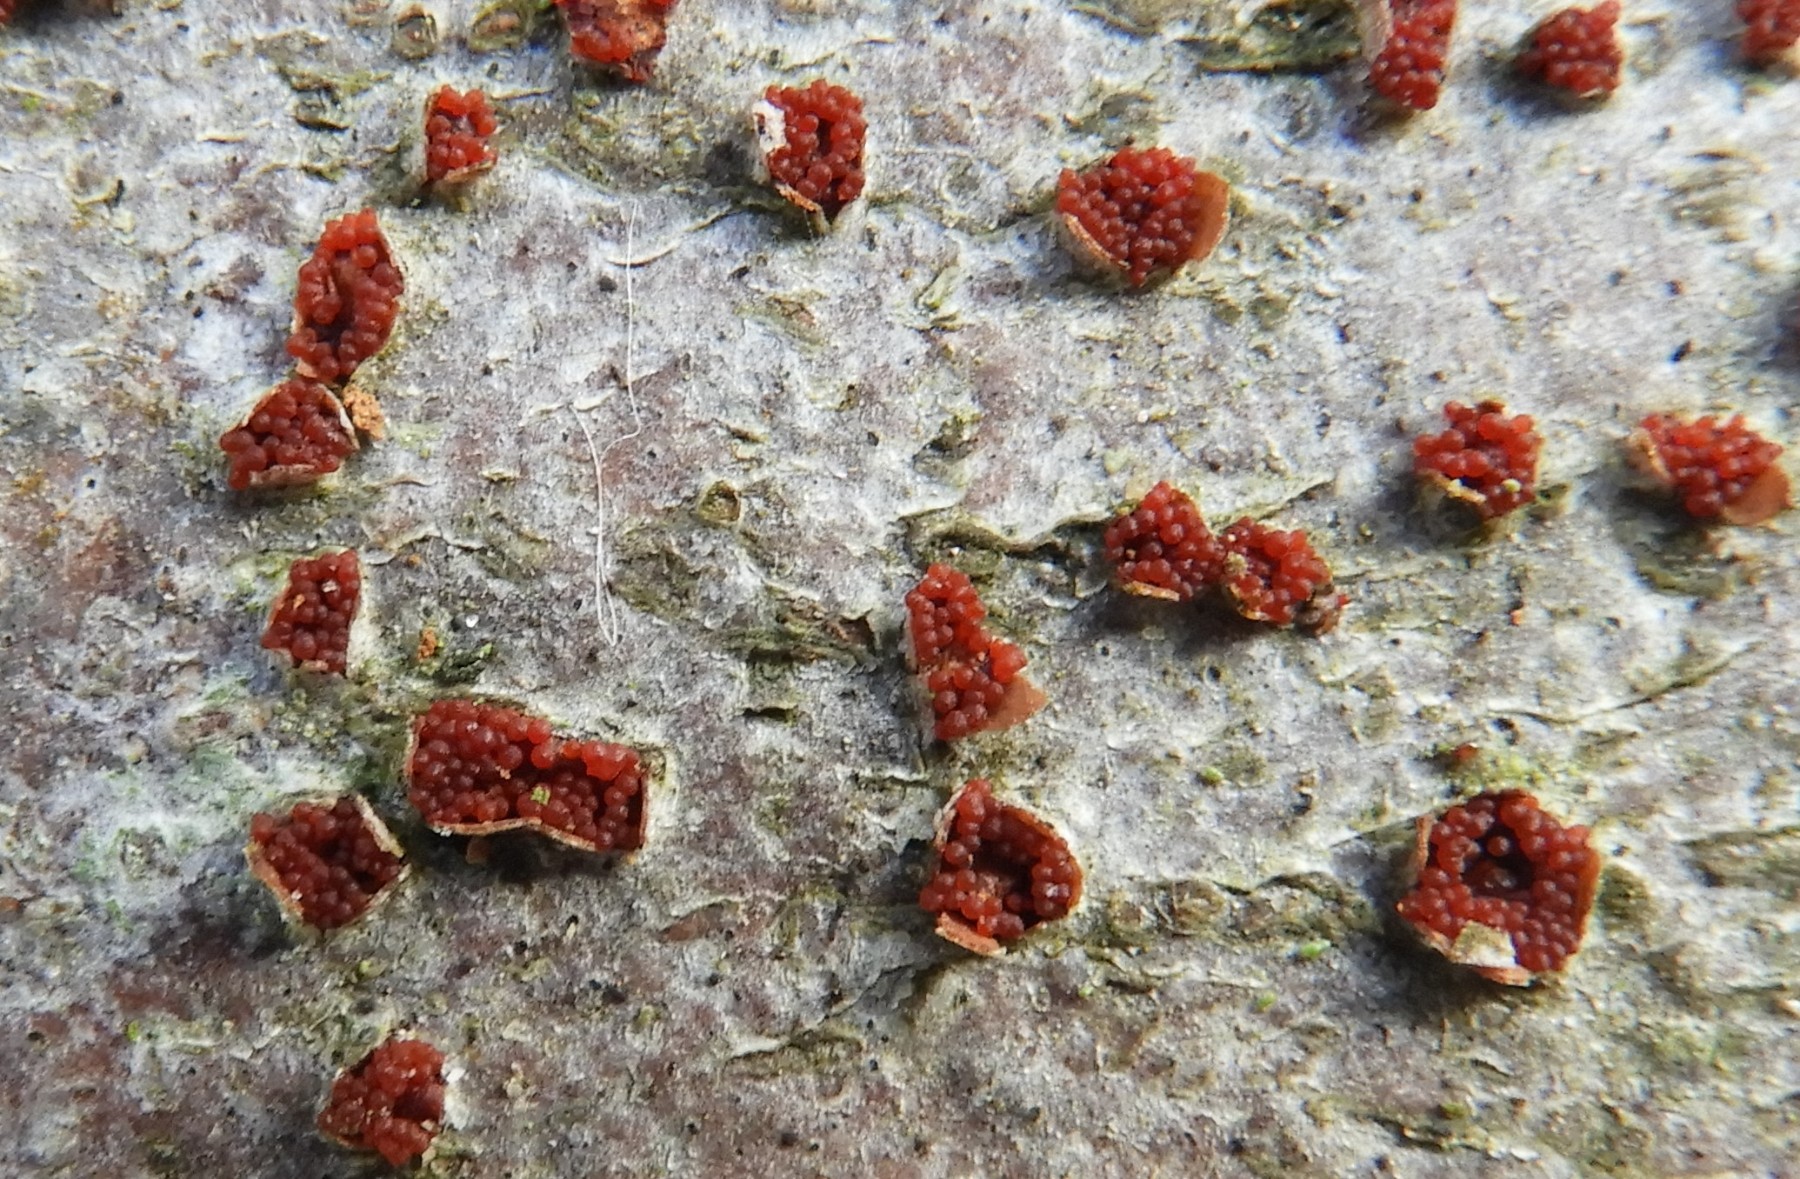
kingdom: Fungi
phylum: Ascomycota
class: Sordariomycetes
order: Hypocreales
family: Nectriaceae
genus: Neonectria
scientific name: Neonectria coccinea
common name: bøgebark-cinnobersvamp
